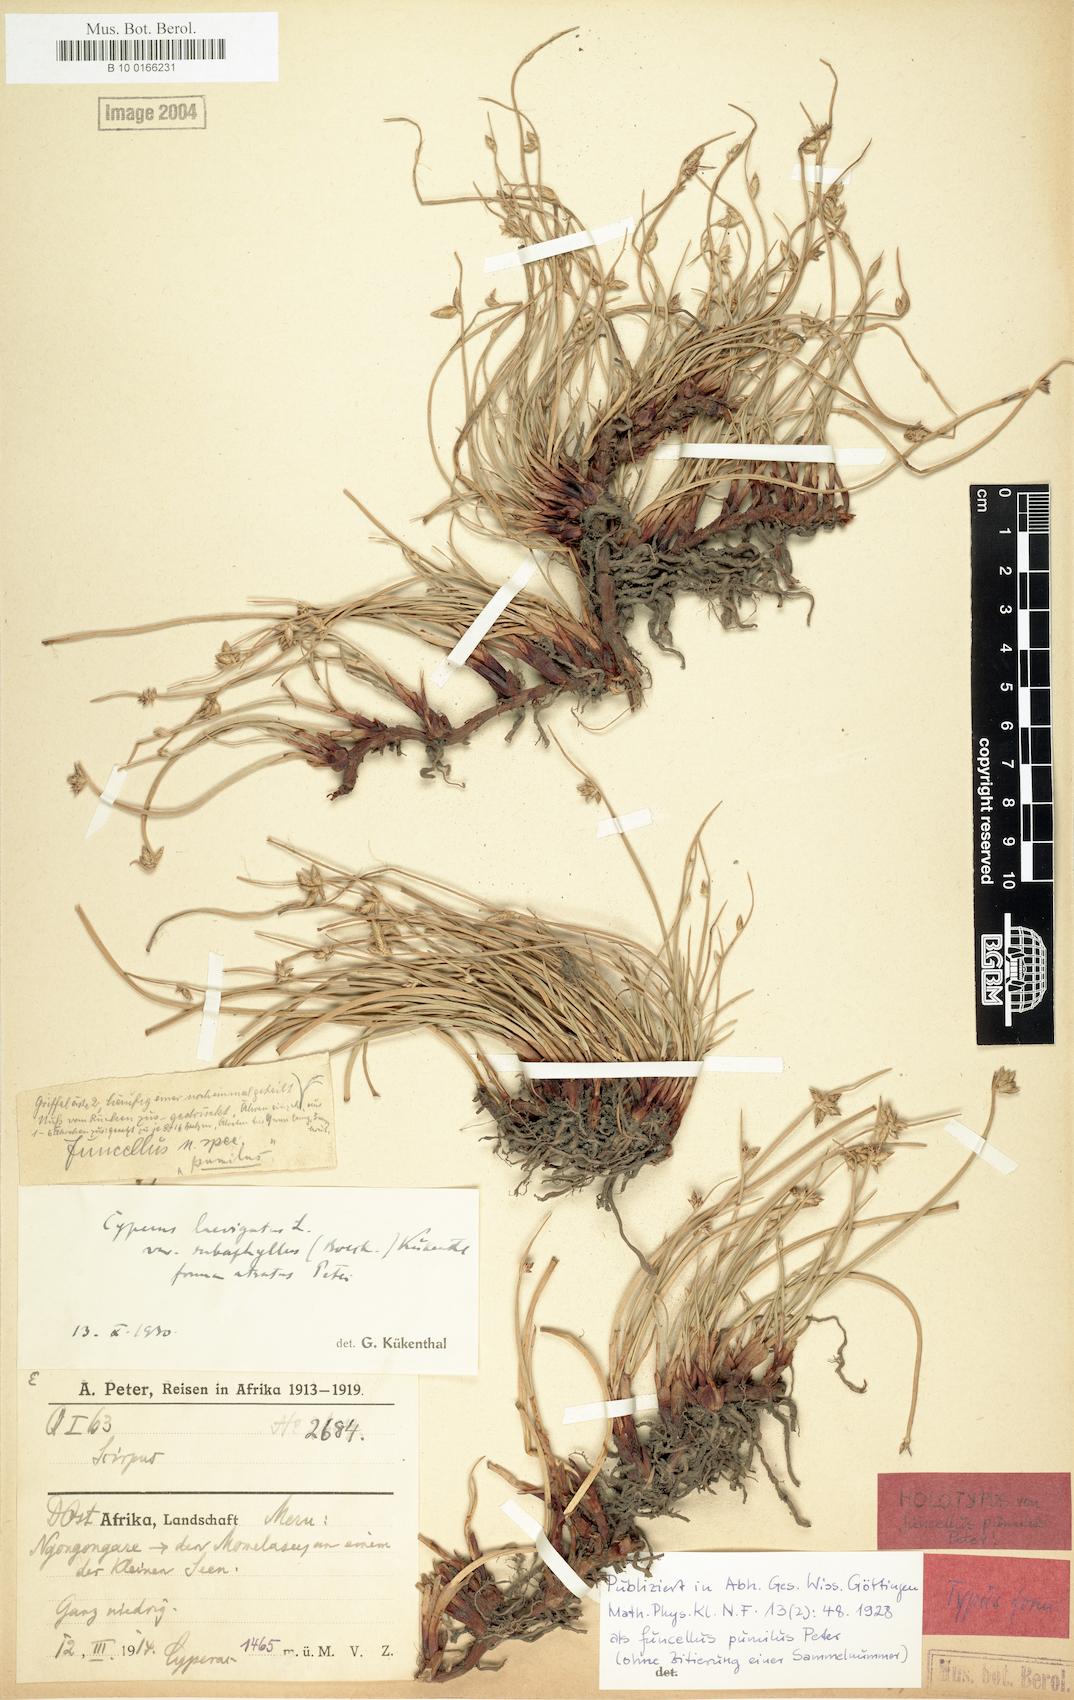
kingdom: Plantae
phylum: Tracheophyta
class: Liliopsida
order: Poales
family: Cyperaceae
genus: Cyperus
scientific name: Cyperus laevigatus
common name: Smooth flat sedge
